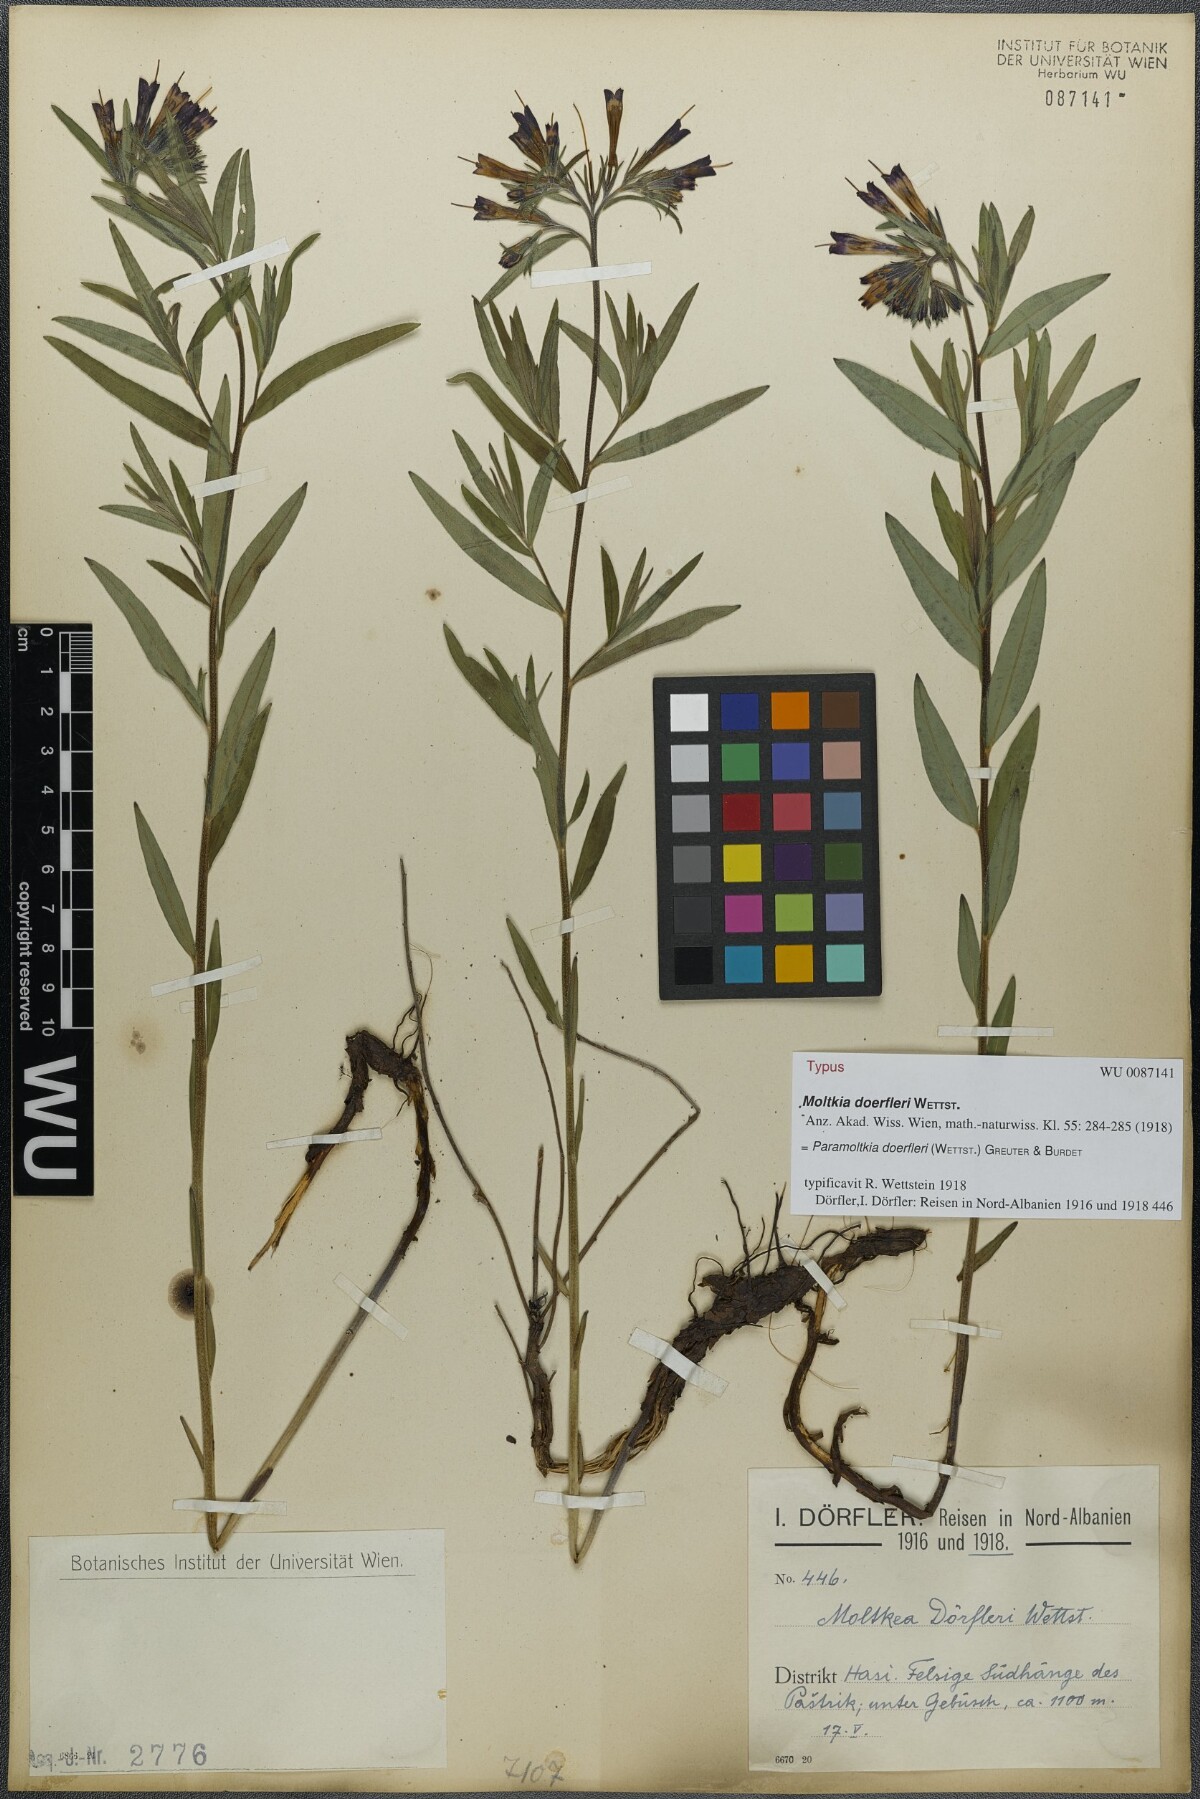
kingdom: Plantae
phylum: Tracheophyta
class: Magnoliopsida
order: Boraginales
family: Boraginaceae
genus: Paramoltkia
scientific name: Paramoltkia doerfleri
